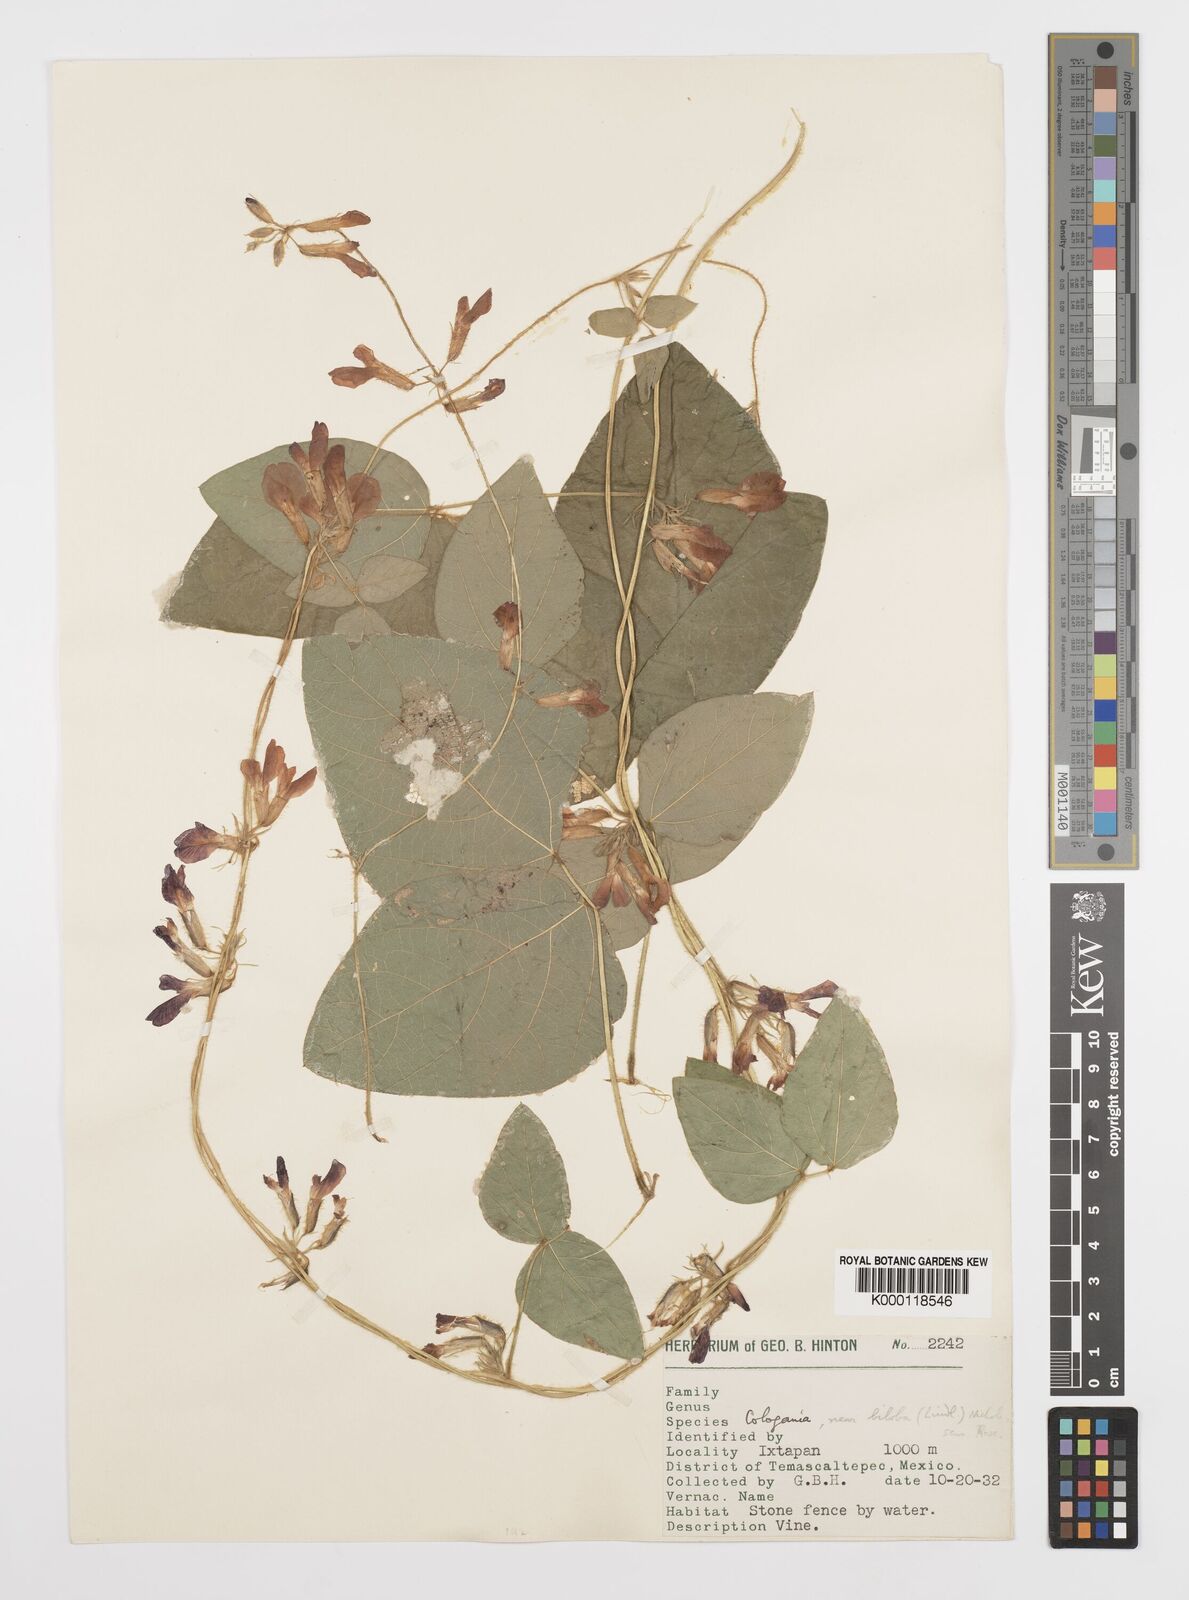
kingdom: Plantae
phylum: Tracheophyta
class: Magnoliopsida
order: Fabales
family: Fabaceae
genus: Cologania
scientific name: Cologania biloba
